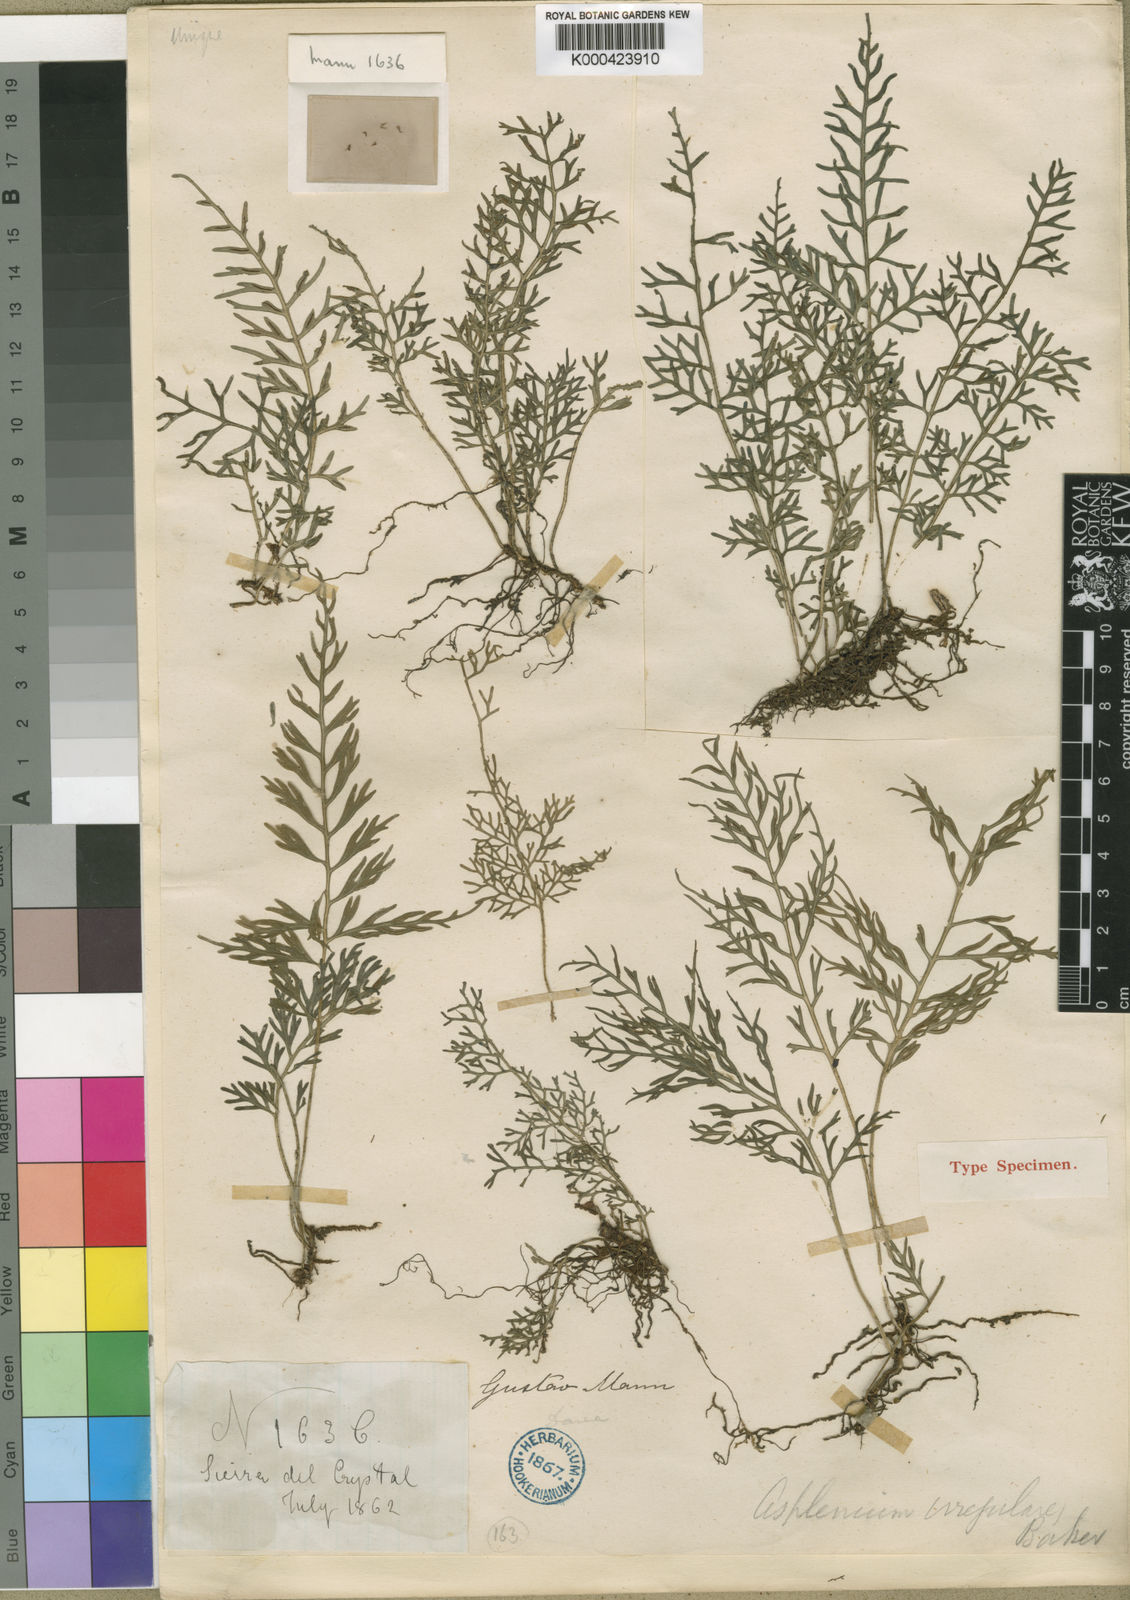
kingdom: Plantae
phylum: Tracheophyta
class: Polypodiopsida
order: Polypodiales
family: Aspleniaceae
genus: Asplenium
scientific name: Asplenium irregulare
